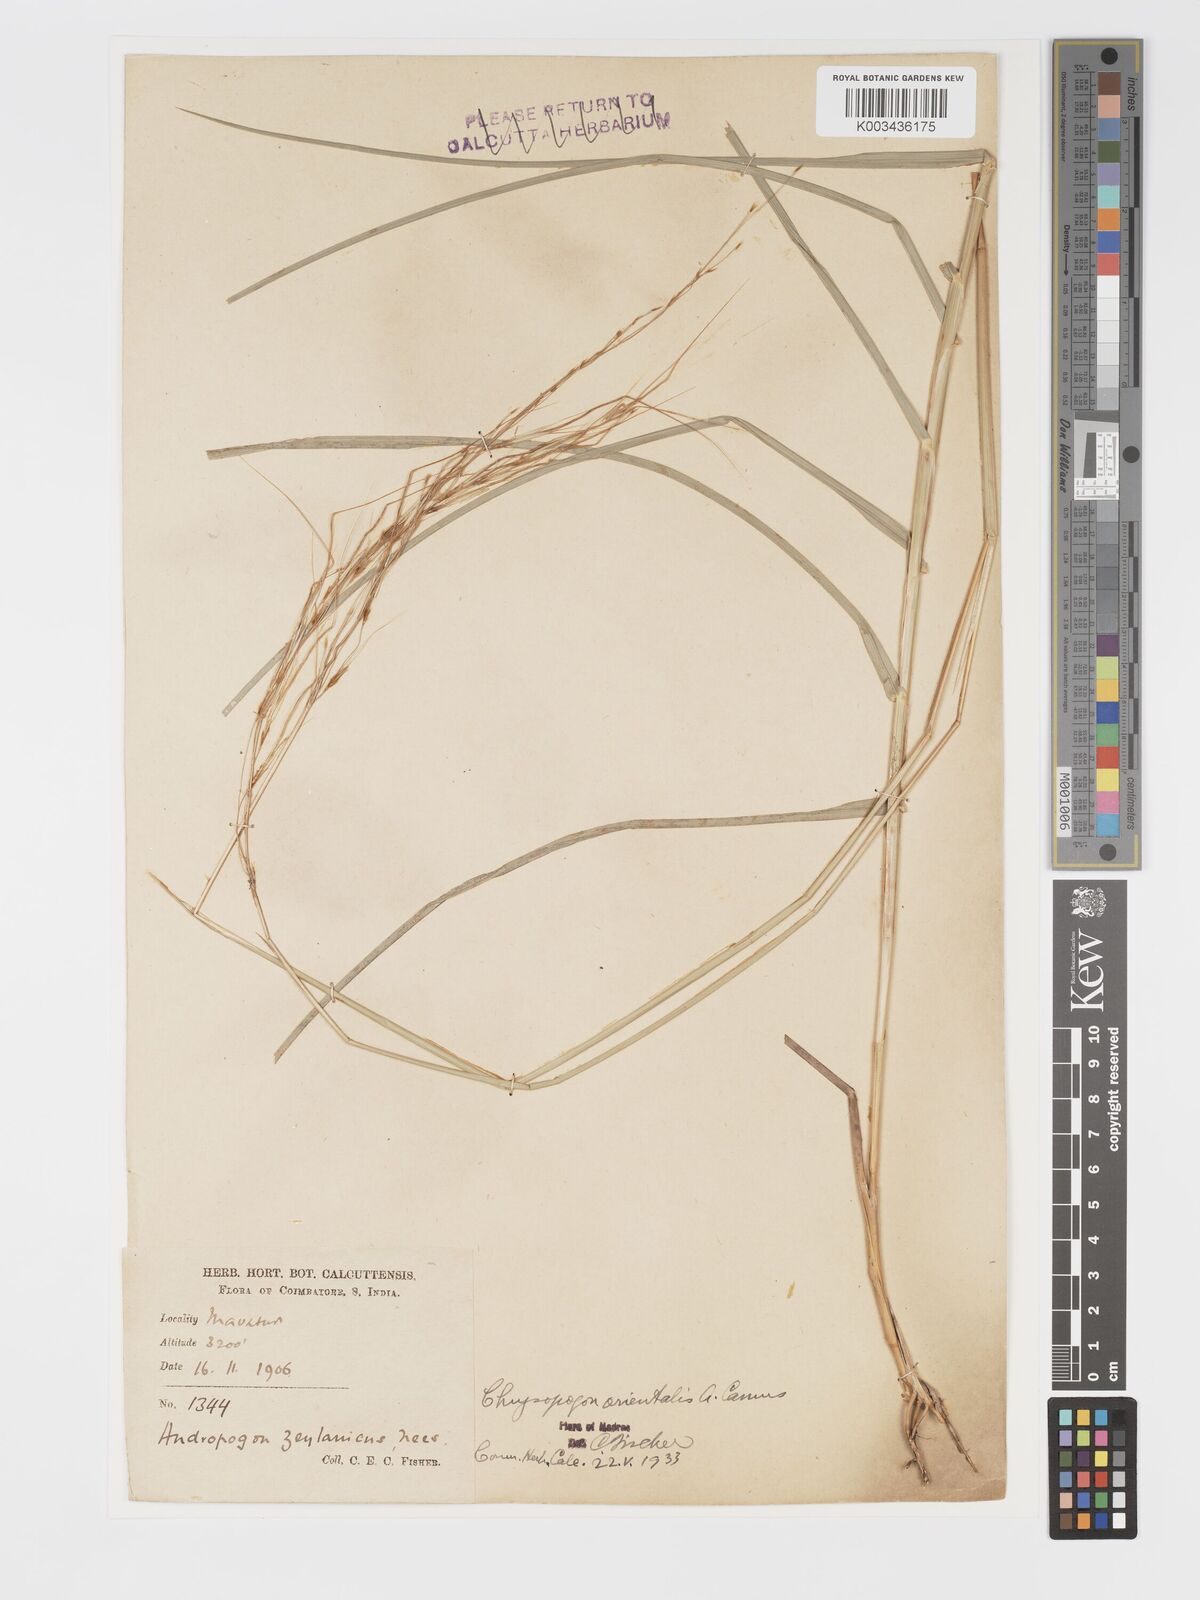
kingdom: Plantae
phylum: Tracheophyta
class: Liliopsida
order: Poales
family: Poaceae
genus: Chrysopogon
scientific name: Chrysopogon orientalis
